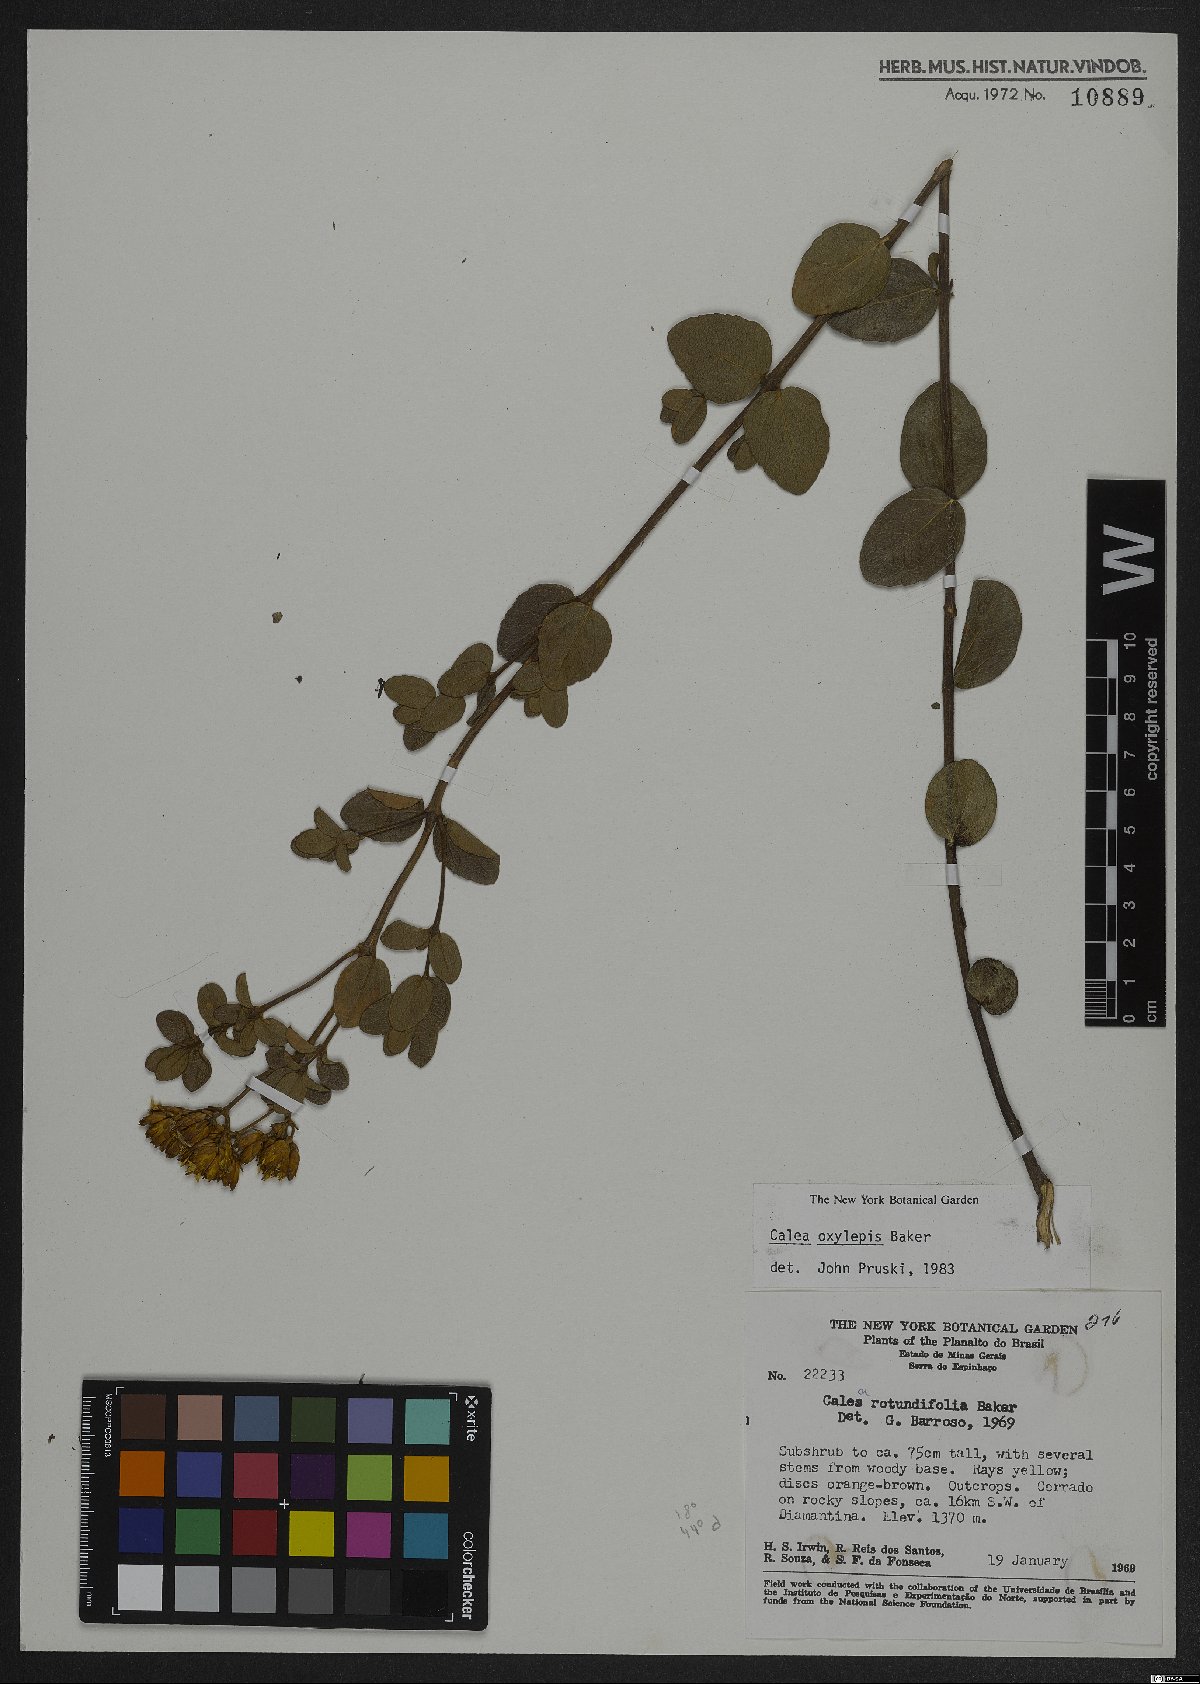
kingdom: Plantae
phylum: Tracheophyta
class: Magnoliopsida
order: Asterales
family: Asteraceae
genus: Calea
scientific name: Calea oxylepis
